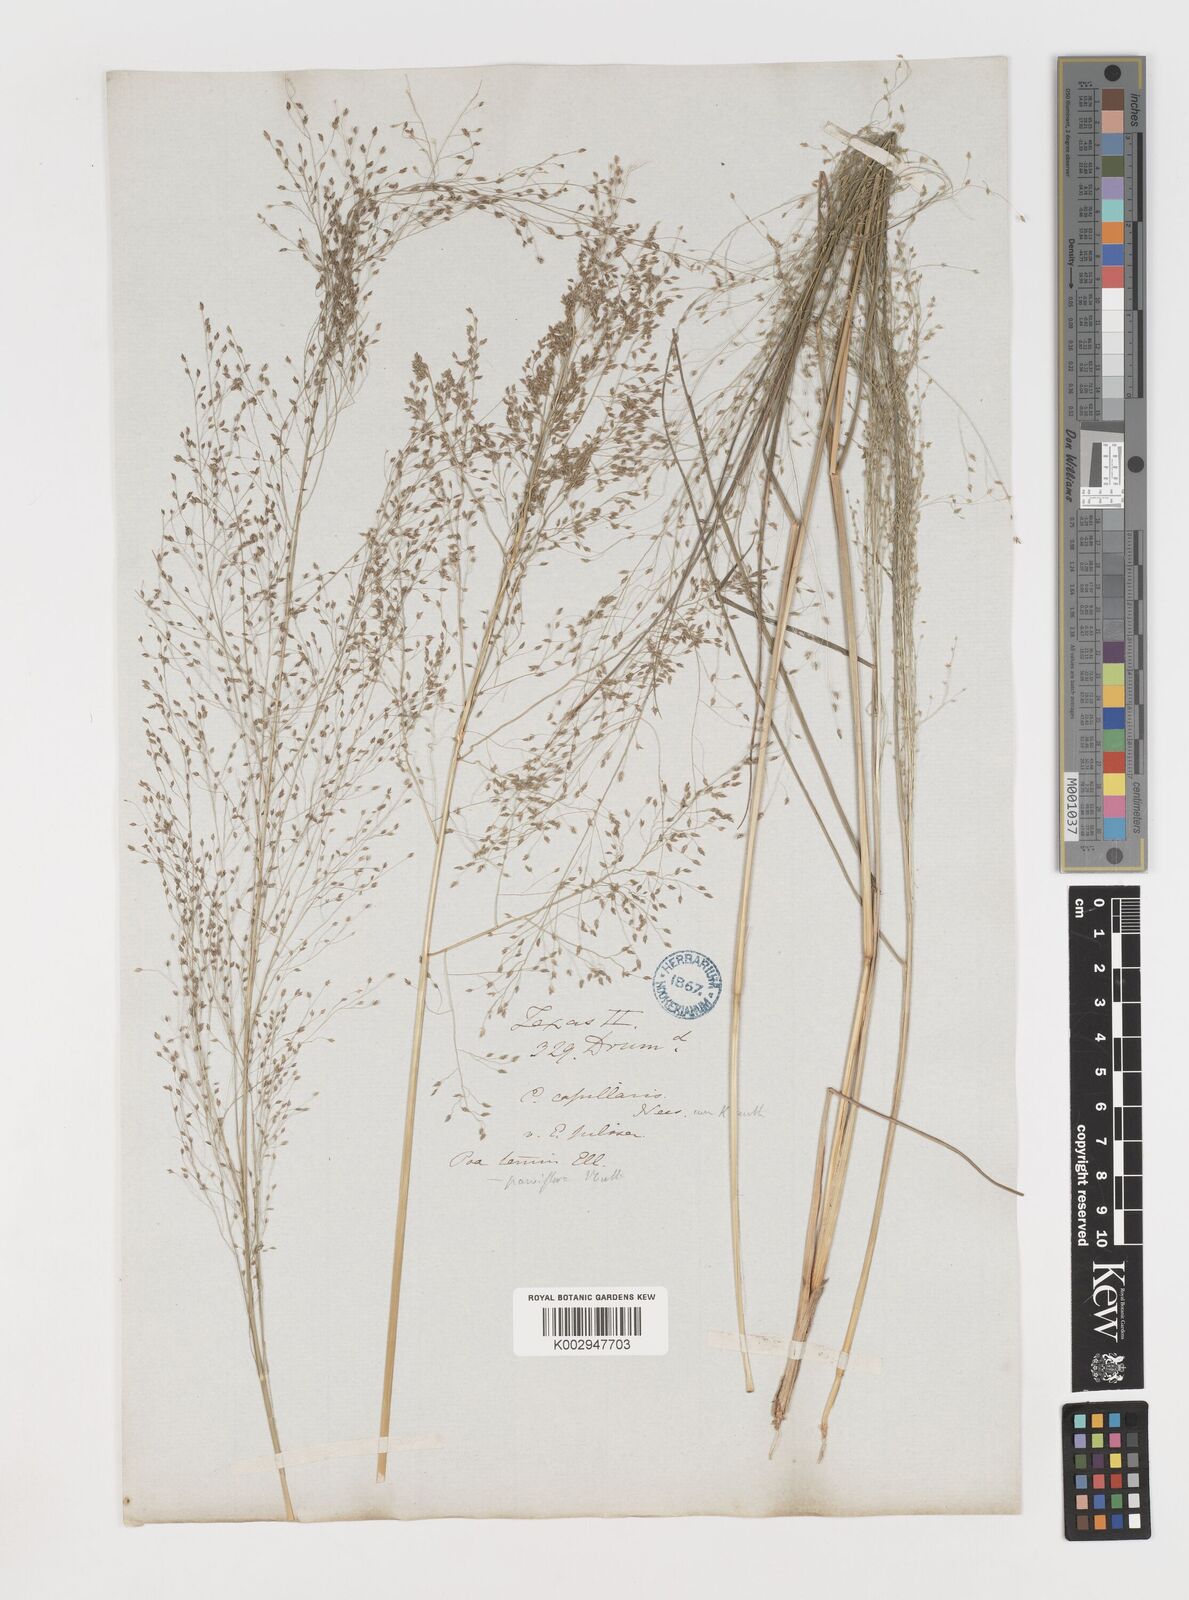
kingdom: Plantae
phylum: Tracheophyta
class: Liliopsida
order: Poales
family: Poaceae
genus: Eragrostis
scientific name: Eragrostis capillaris
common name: Hair-like lovegrass
